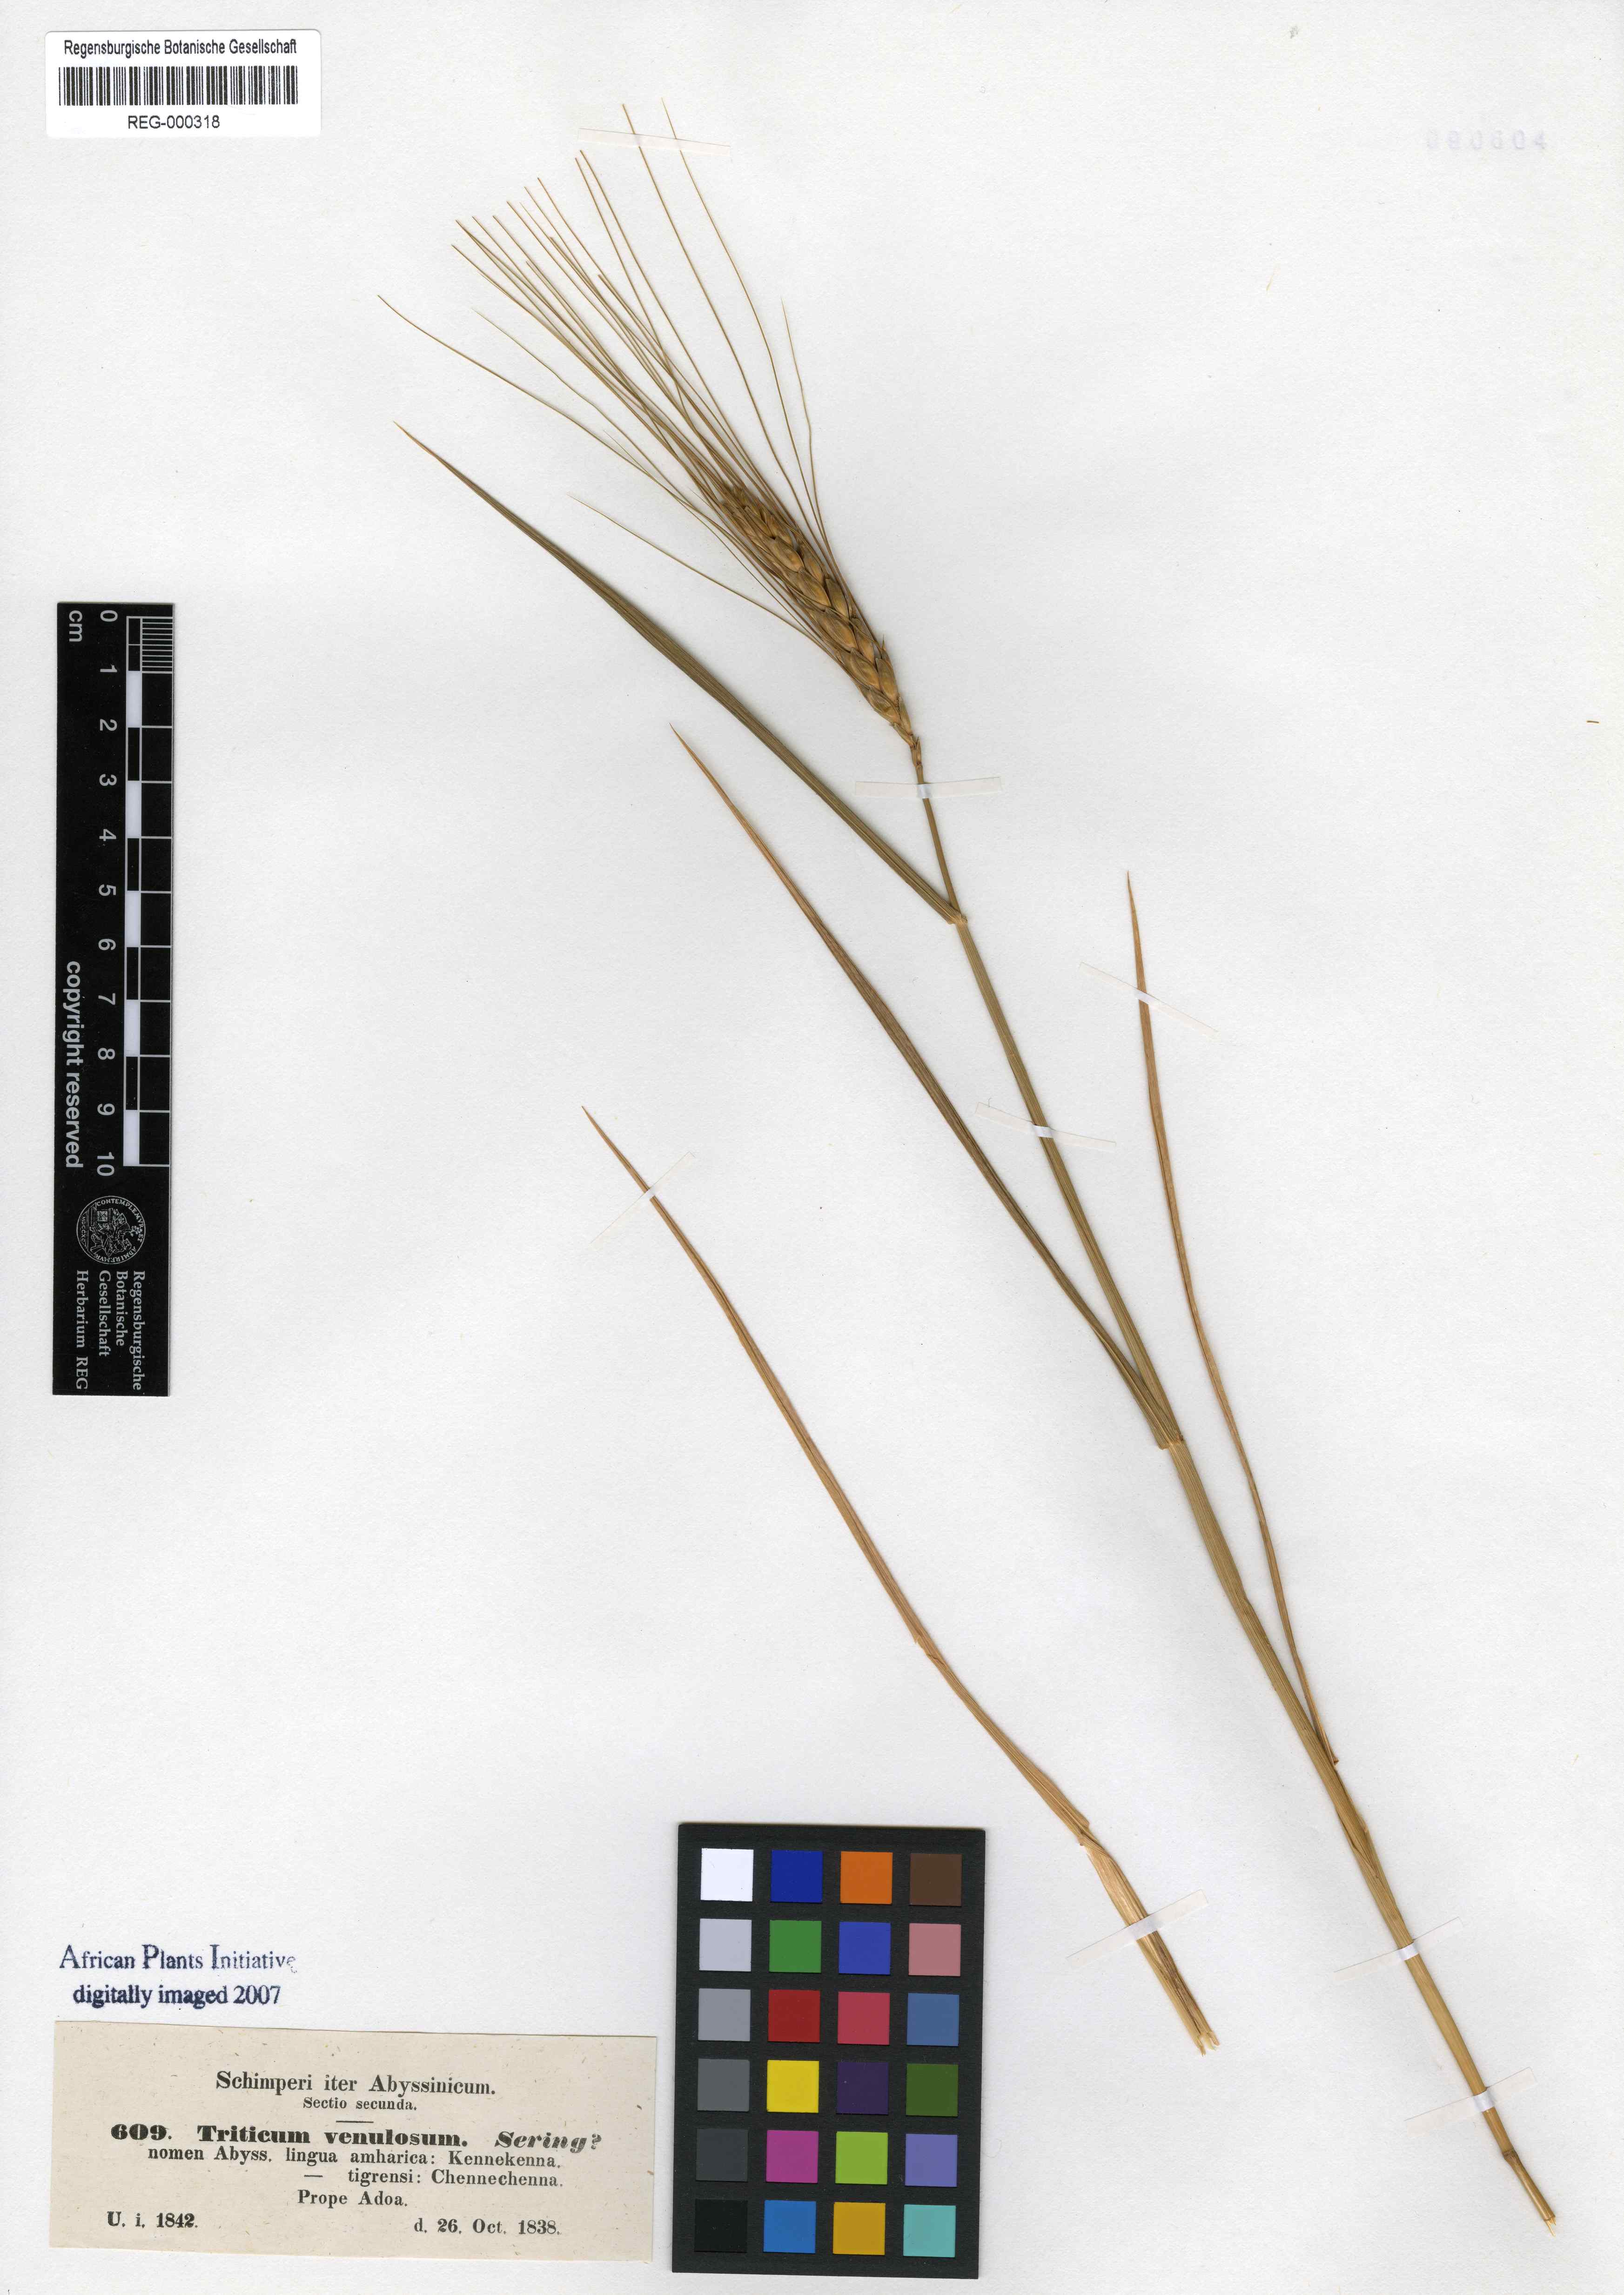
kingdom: Plantae
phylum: Tracheophyta
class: Liliopsida
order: Poales
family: Poaceae
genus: Triticum
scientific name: Triticum monococcum
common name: Einkorn
